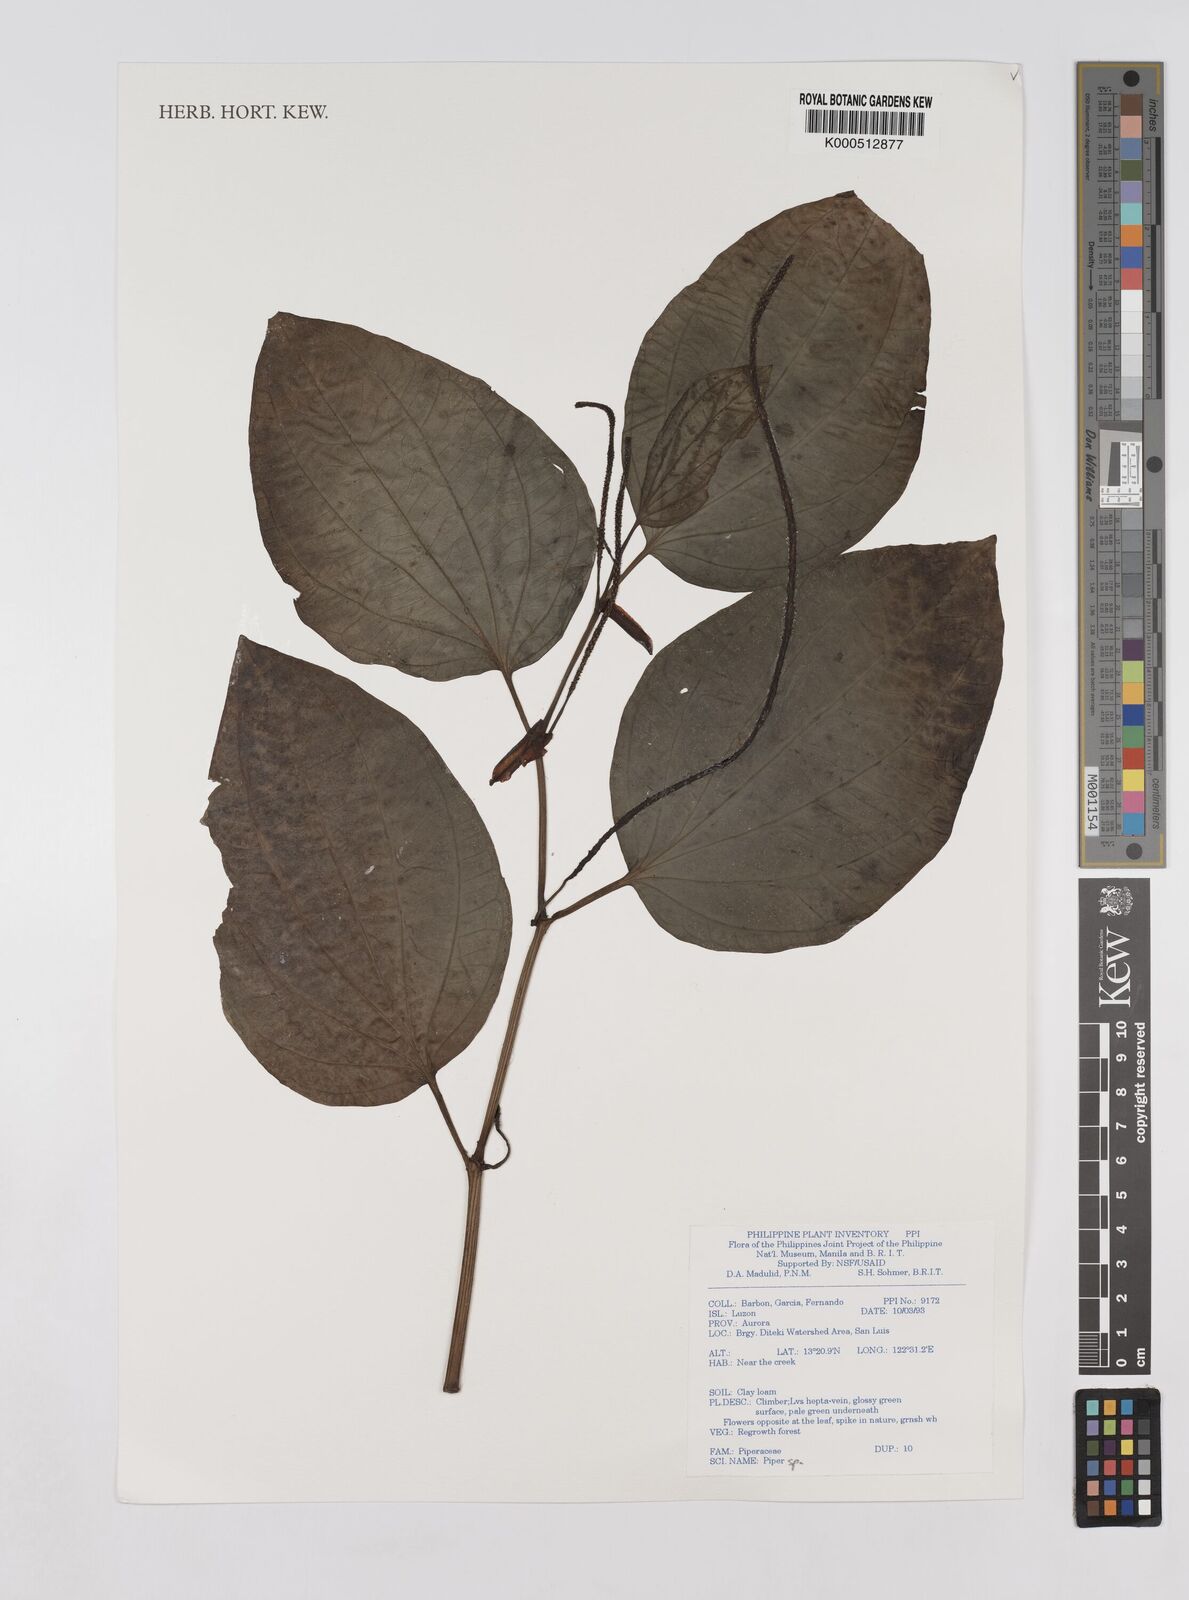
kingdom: Plantae
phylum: Tracheophyta
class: Magnoliopsida
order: Piperales
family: Piperaceae
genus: Piper
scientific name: Piper
